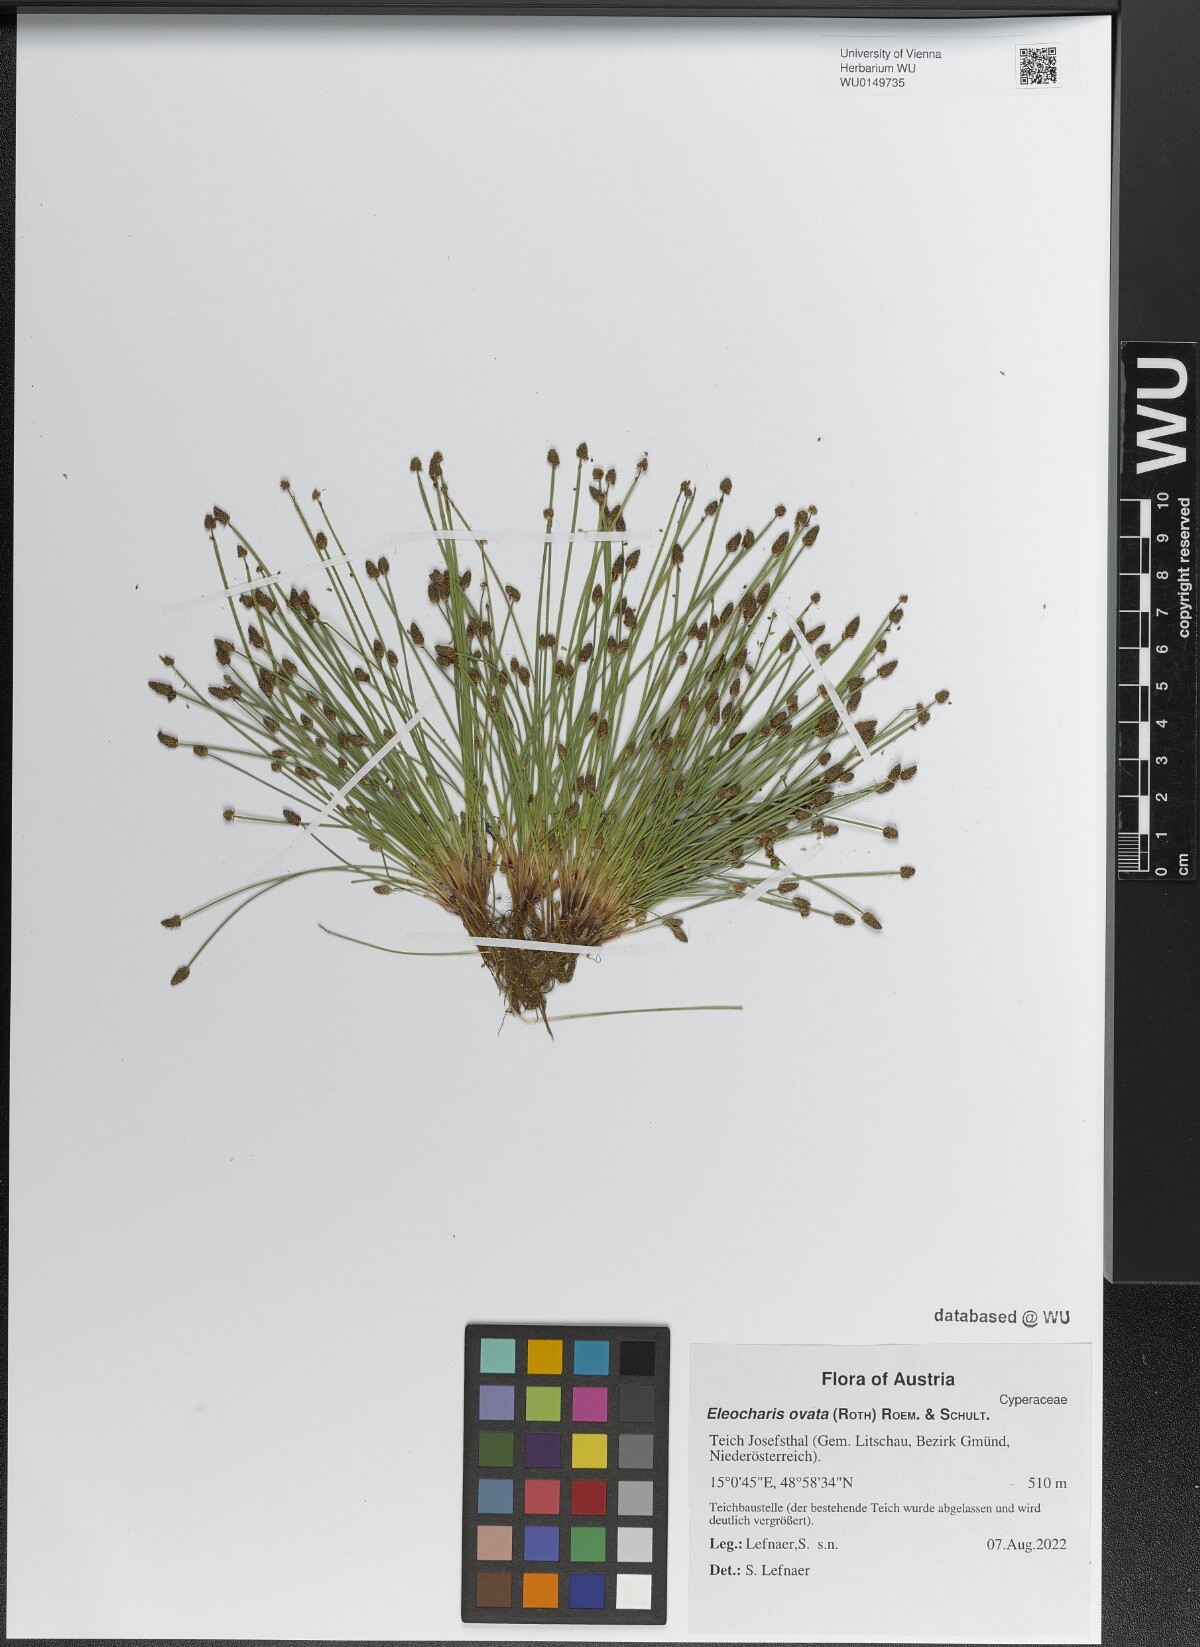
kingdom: Plantae
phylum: Tracheophyta
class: Liliopsida
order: Poales
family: Cyperaceae
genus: Eleocharis
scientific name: Eleocharis ovata
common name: Oval spike-rush
